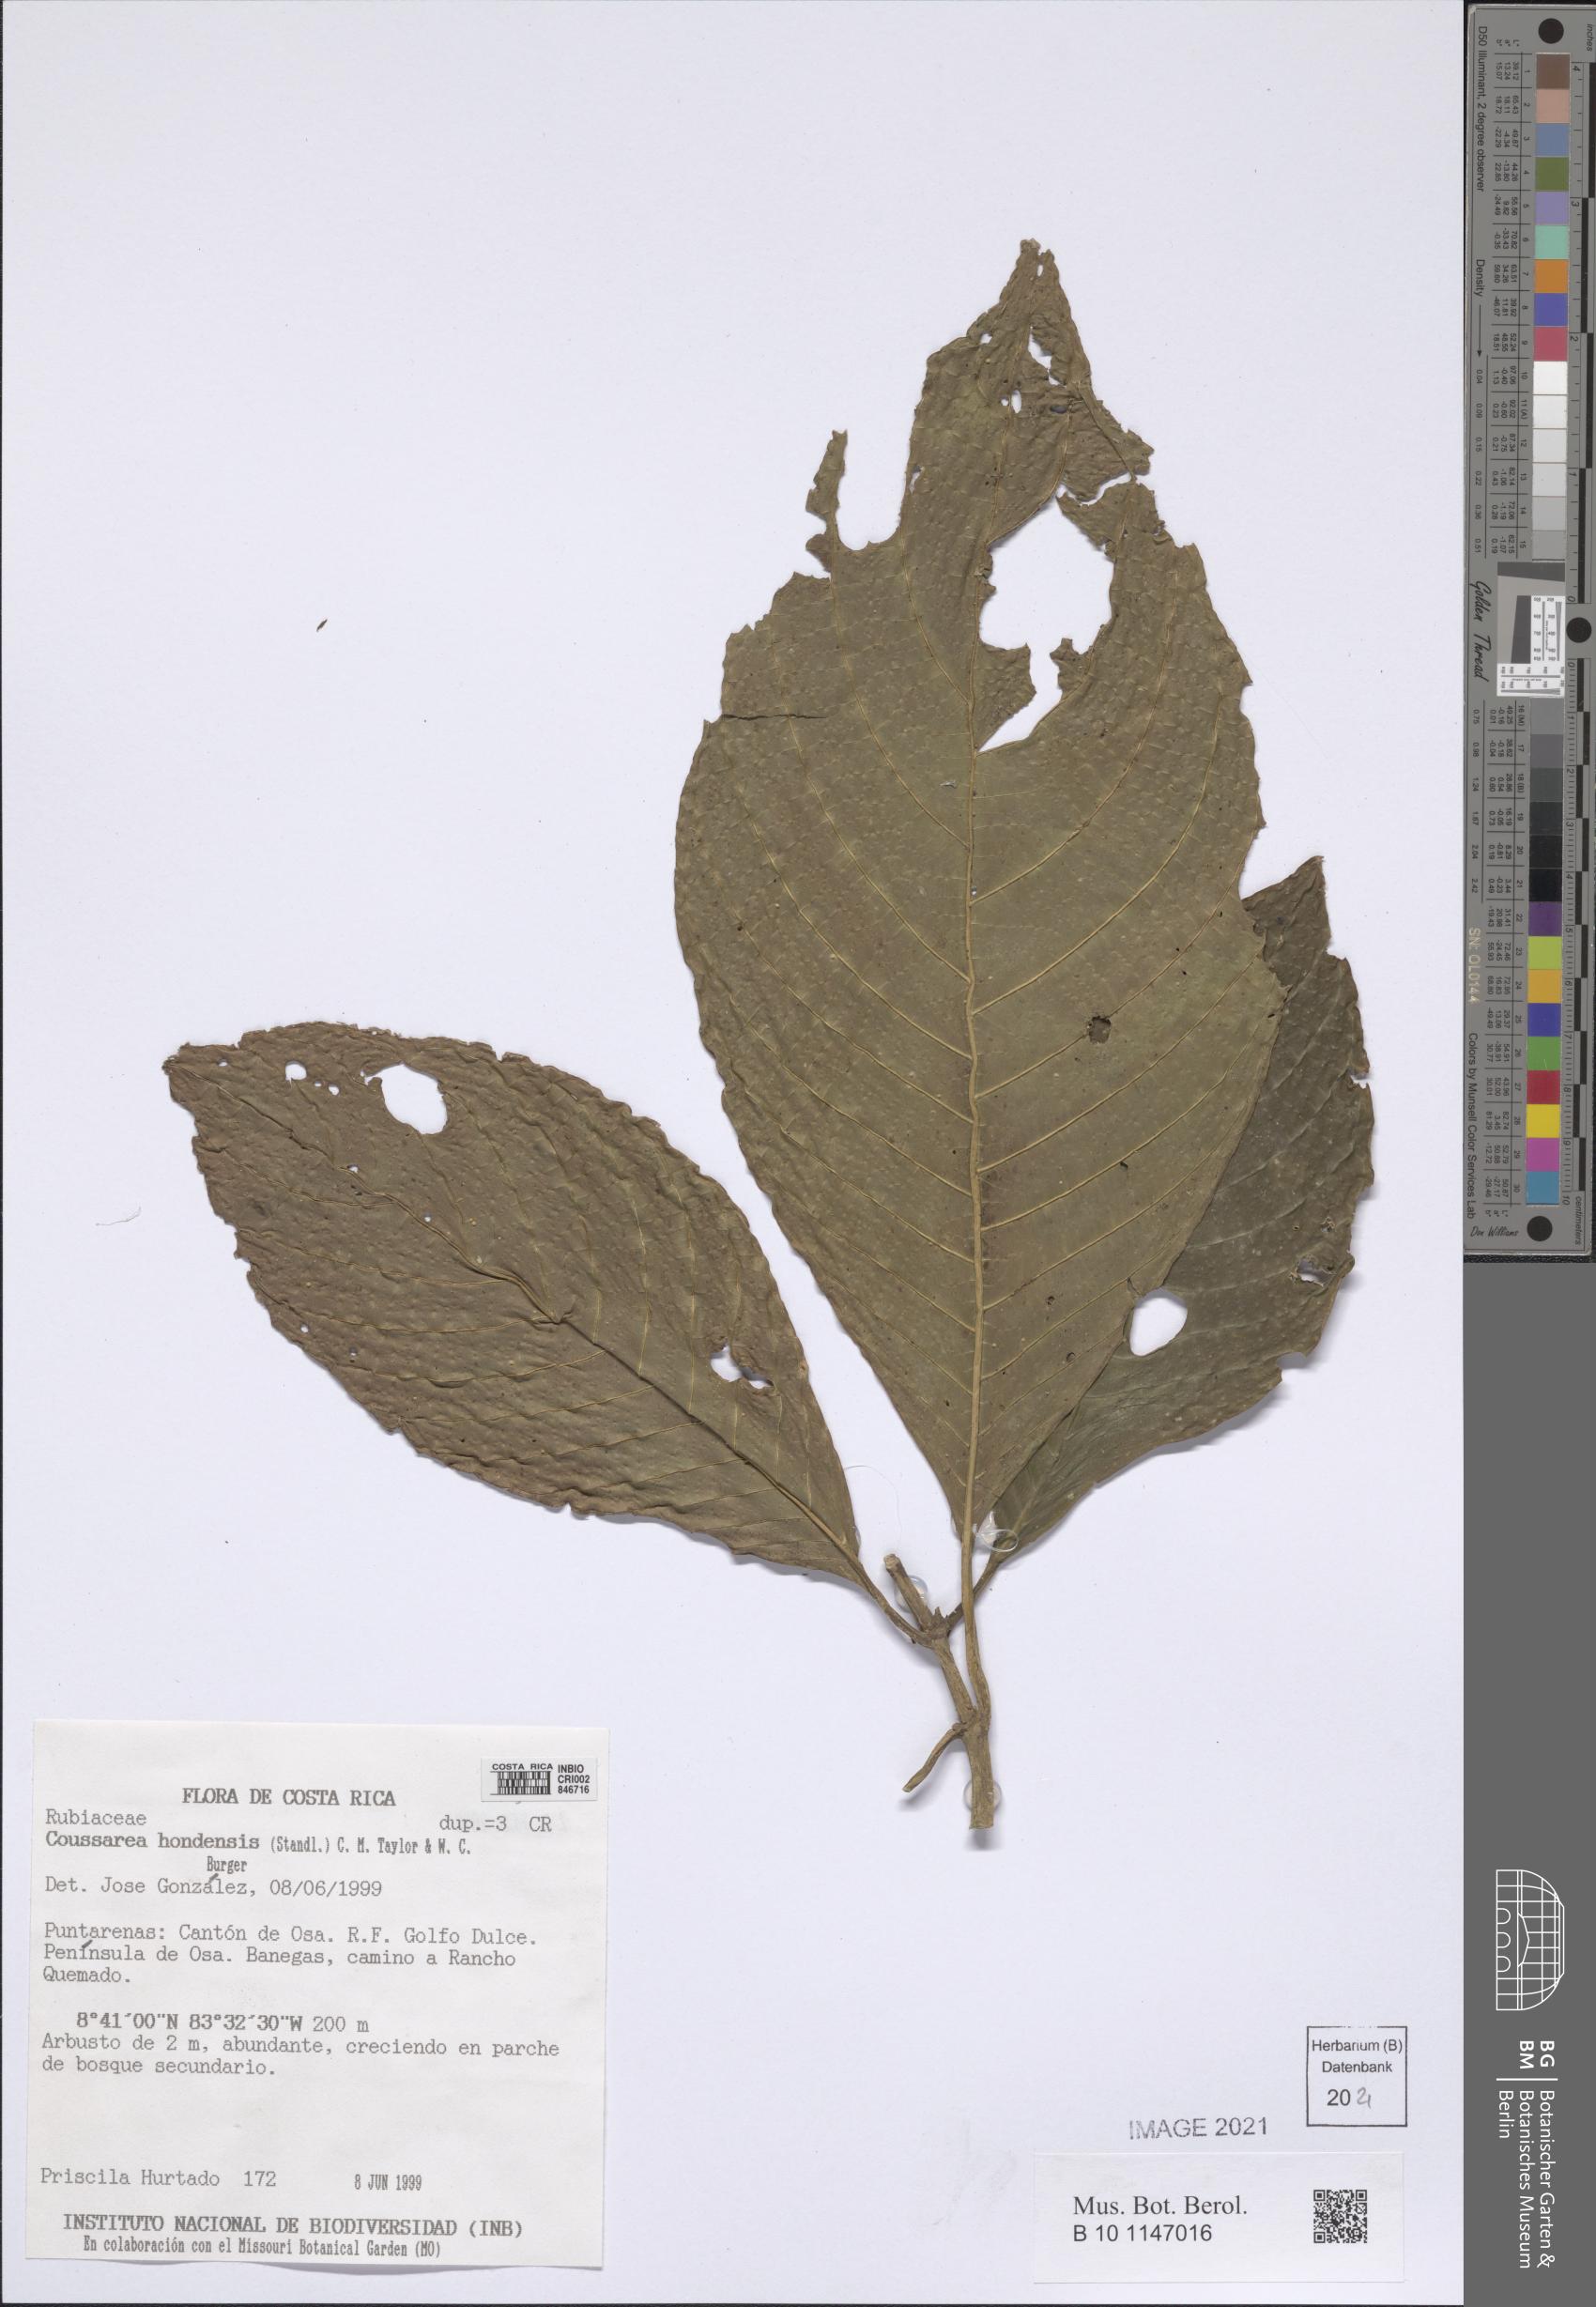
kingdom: Plantae
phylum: Tracheophyta
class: Magnoliopsida
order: Gentianales
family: Rubiaceae
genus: Palicourea
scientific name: Palicourea hondensis
